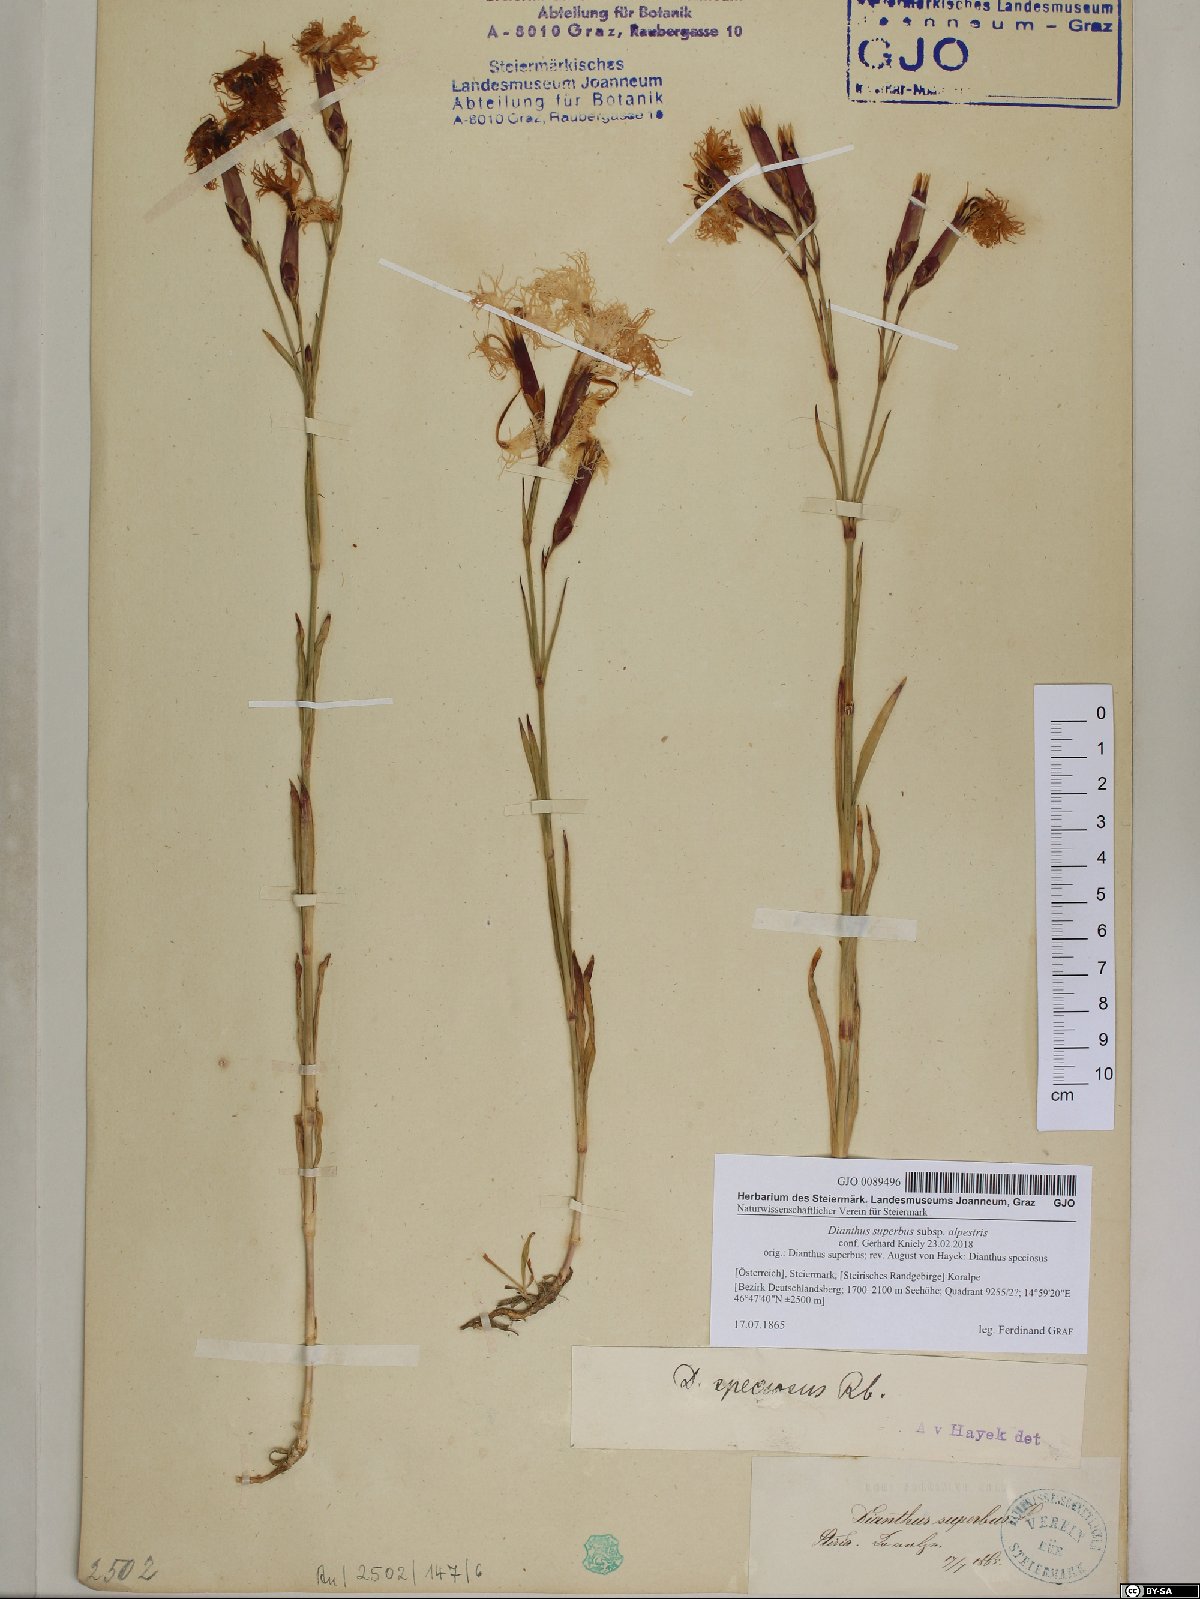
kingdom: Plantae
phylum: Tracheophyta
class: Magnoliopsida
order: Caryophyllales
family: Caryophyllaceae
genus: Dianthus
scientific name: Dianthus superbus
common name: Fringed pink
